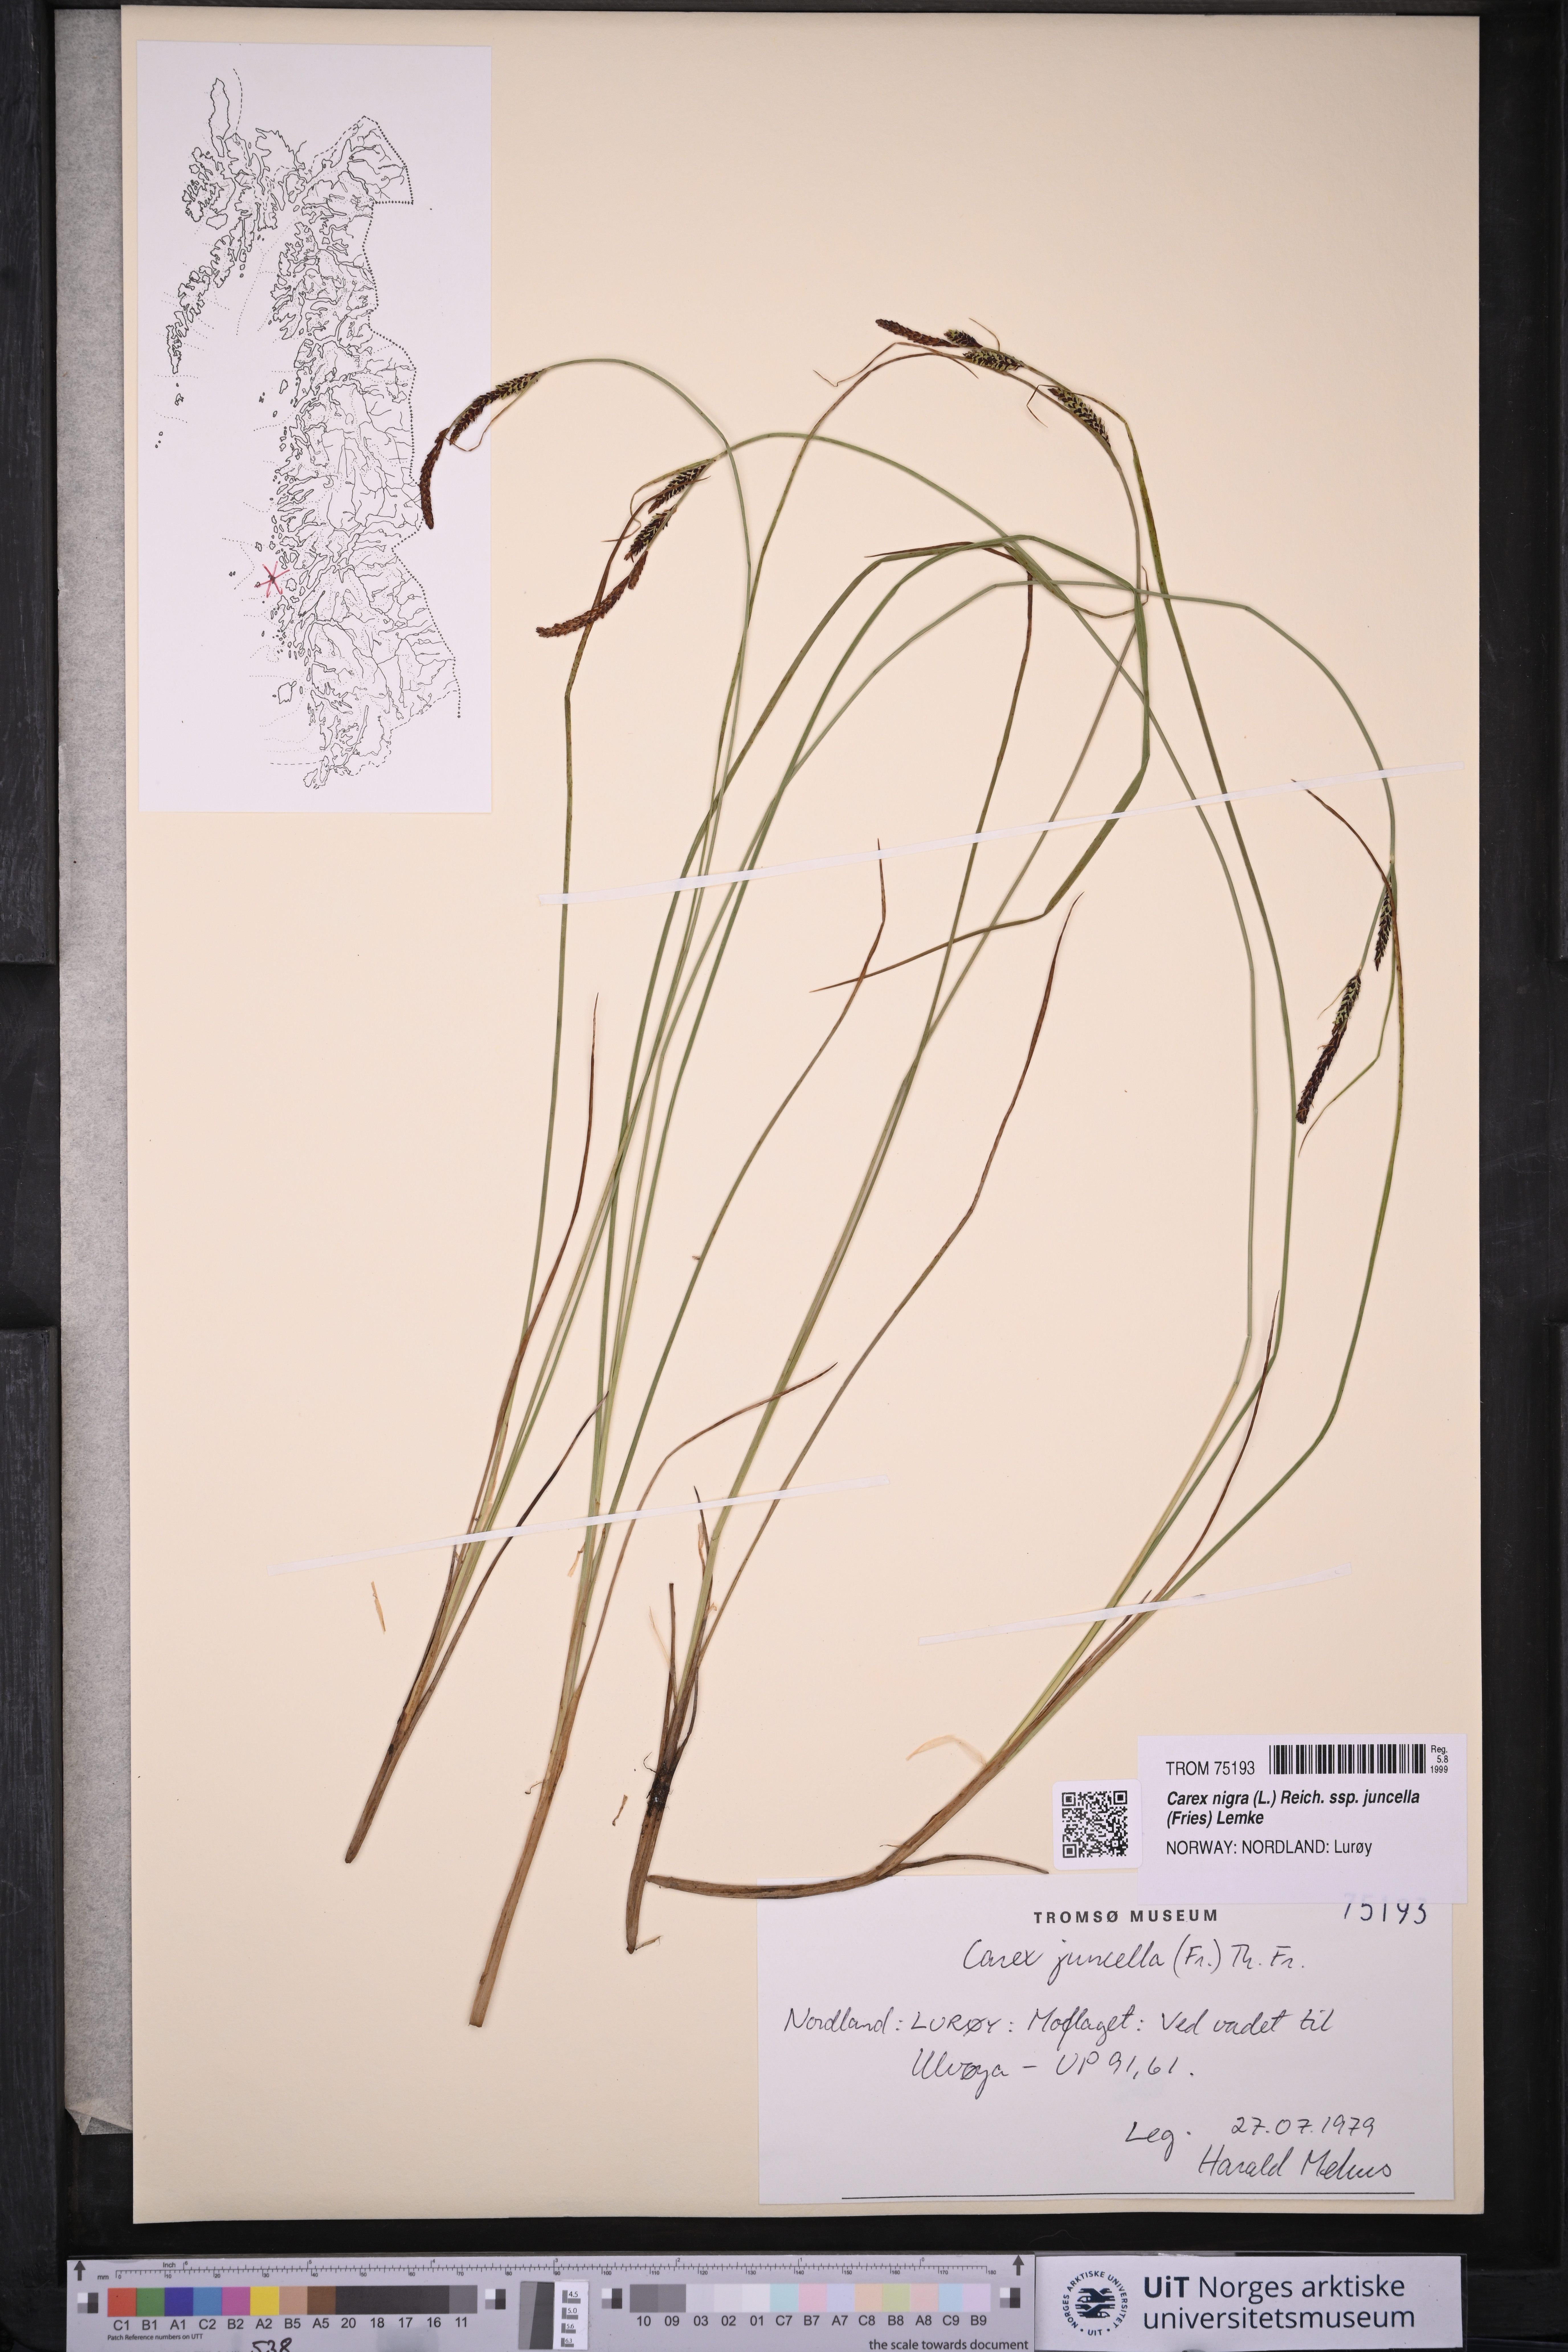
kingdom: Plantae
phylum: Tracheophyta
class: Liliopsida
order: Poales
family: Cyperaceae
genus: Carex
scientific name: Carex nigra
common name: Common sedge
